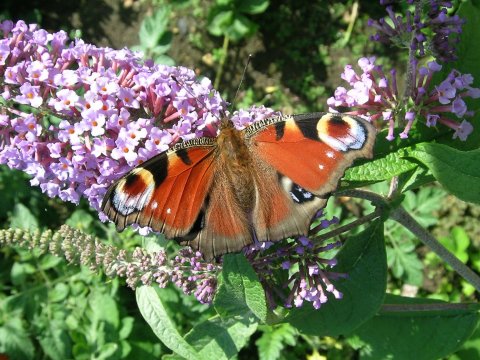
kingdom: Animalia
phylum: Arthropoda
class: Insecta
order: Lepidoptera
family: Nymphalidae
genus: Aglais
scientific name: Aglais io
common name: European Peacock
